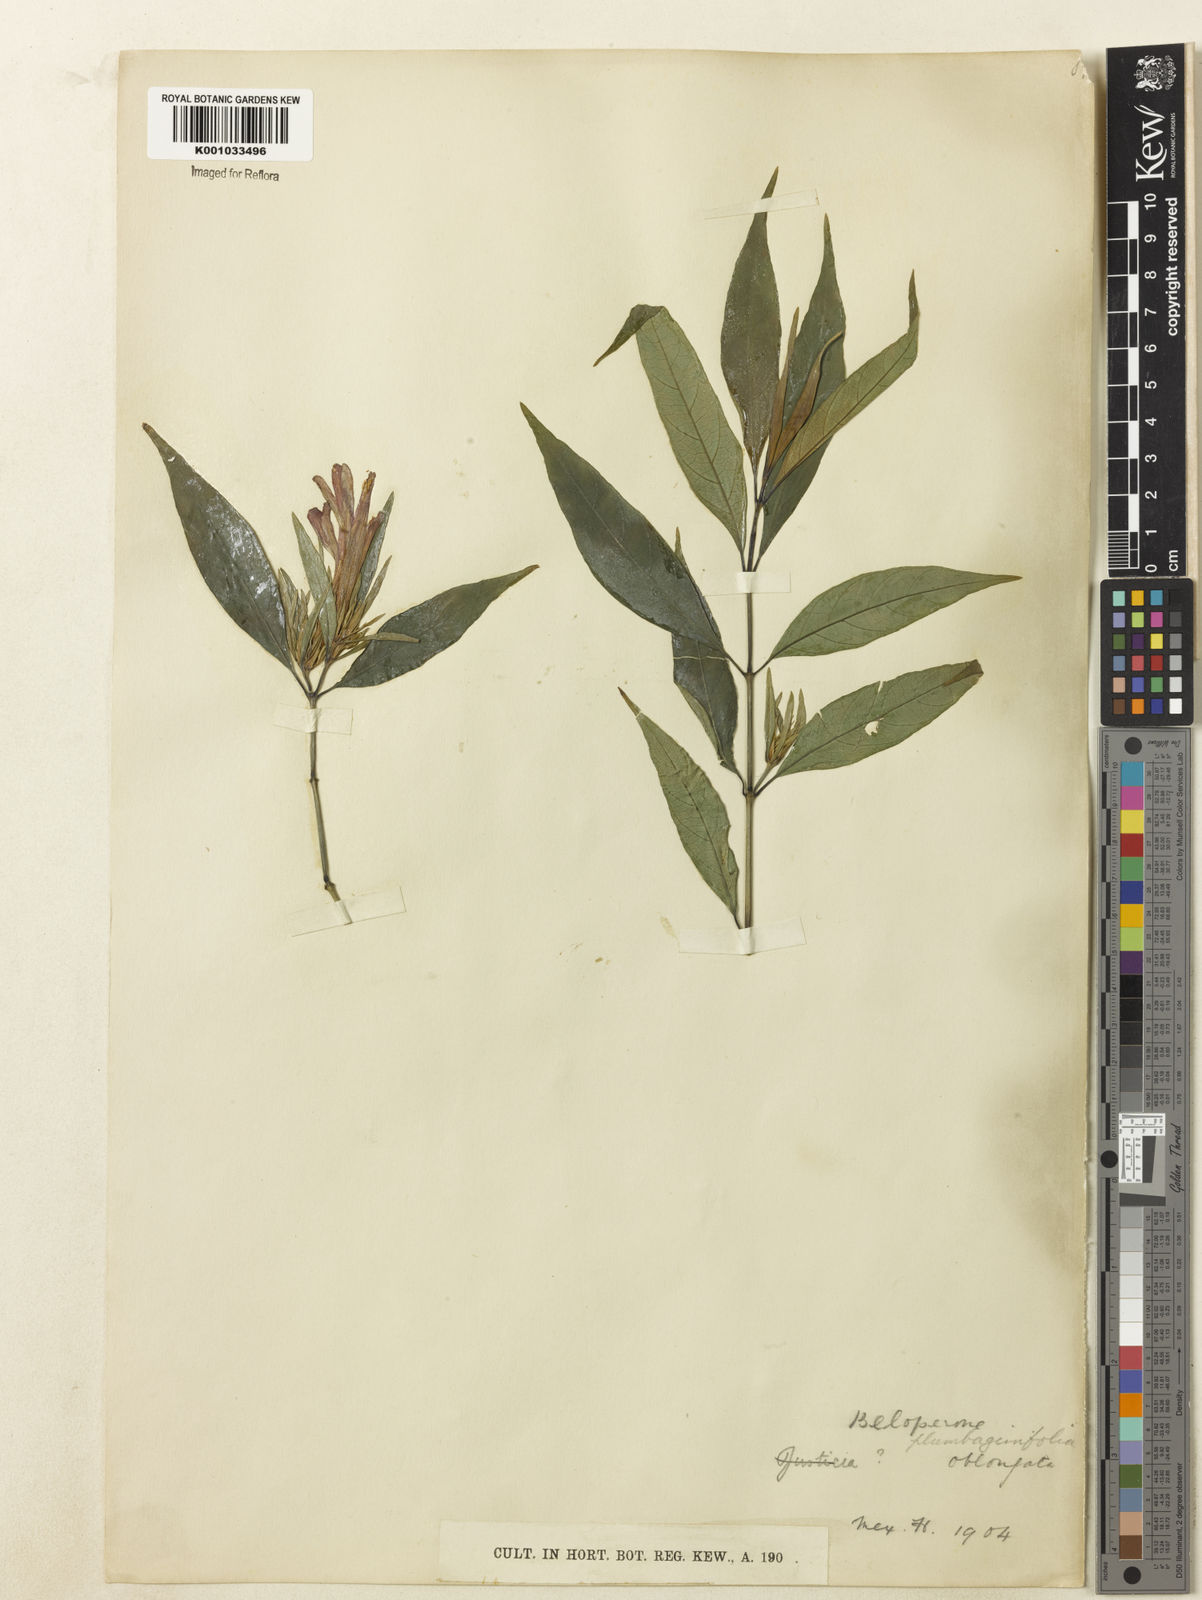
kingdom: Plantae
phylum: Tracheophyta
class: Magnoliopsida
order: Lamiales
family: Acanthaceae
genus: Justicia
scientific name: Justicia plumbaginifolia
